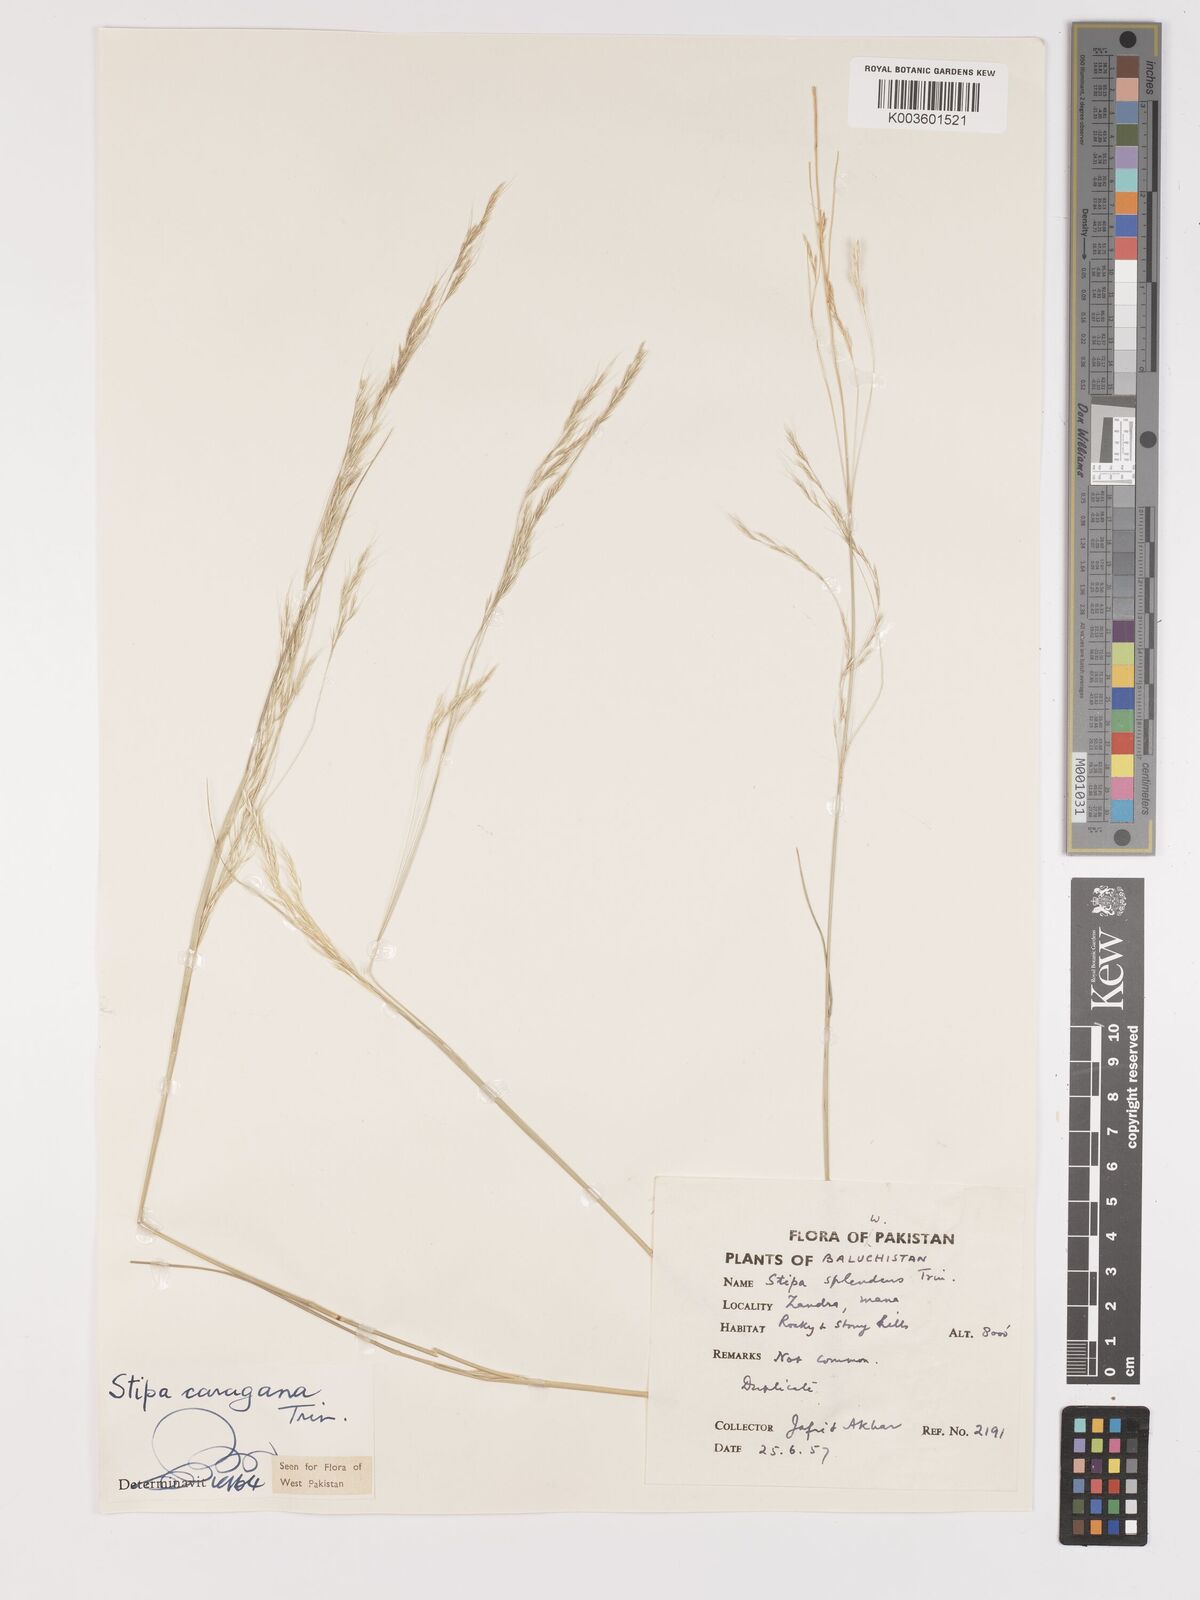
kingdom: Plantae
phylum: Tracheophyta
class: Liliopsida
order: Poales
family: Poaceae
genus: Stipa
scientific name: Stipa conferta
